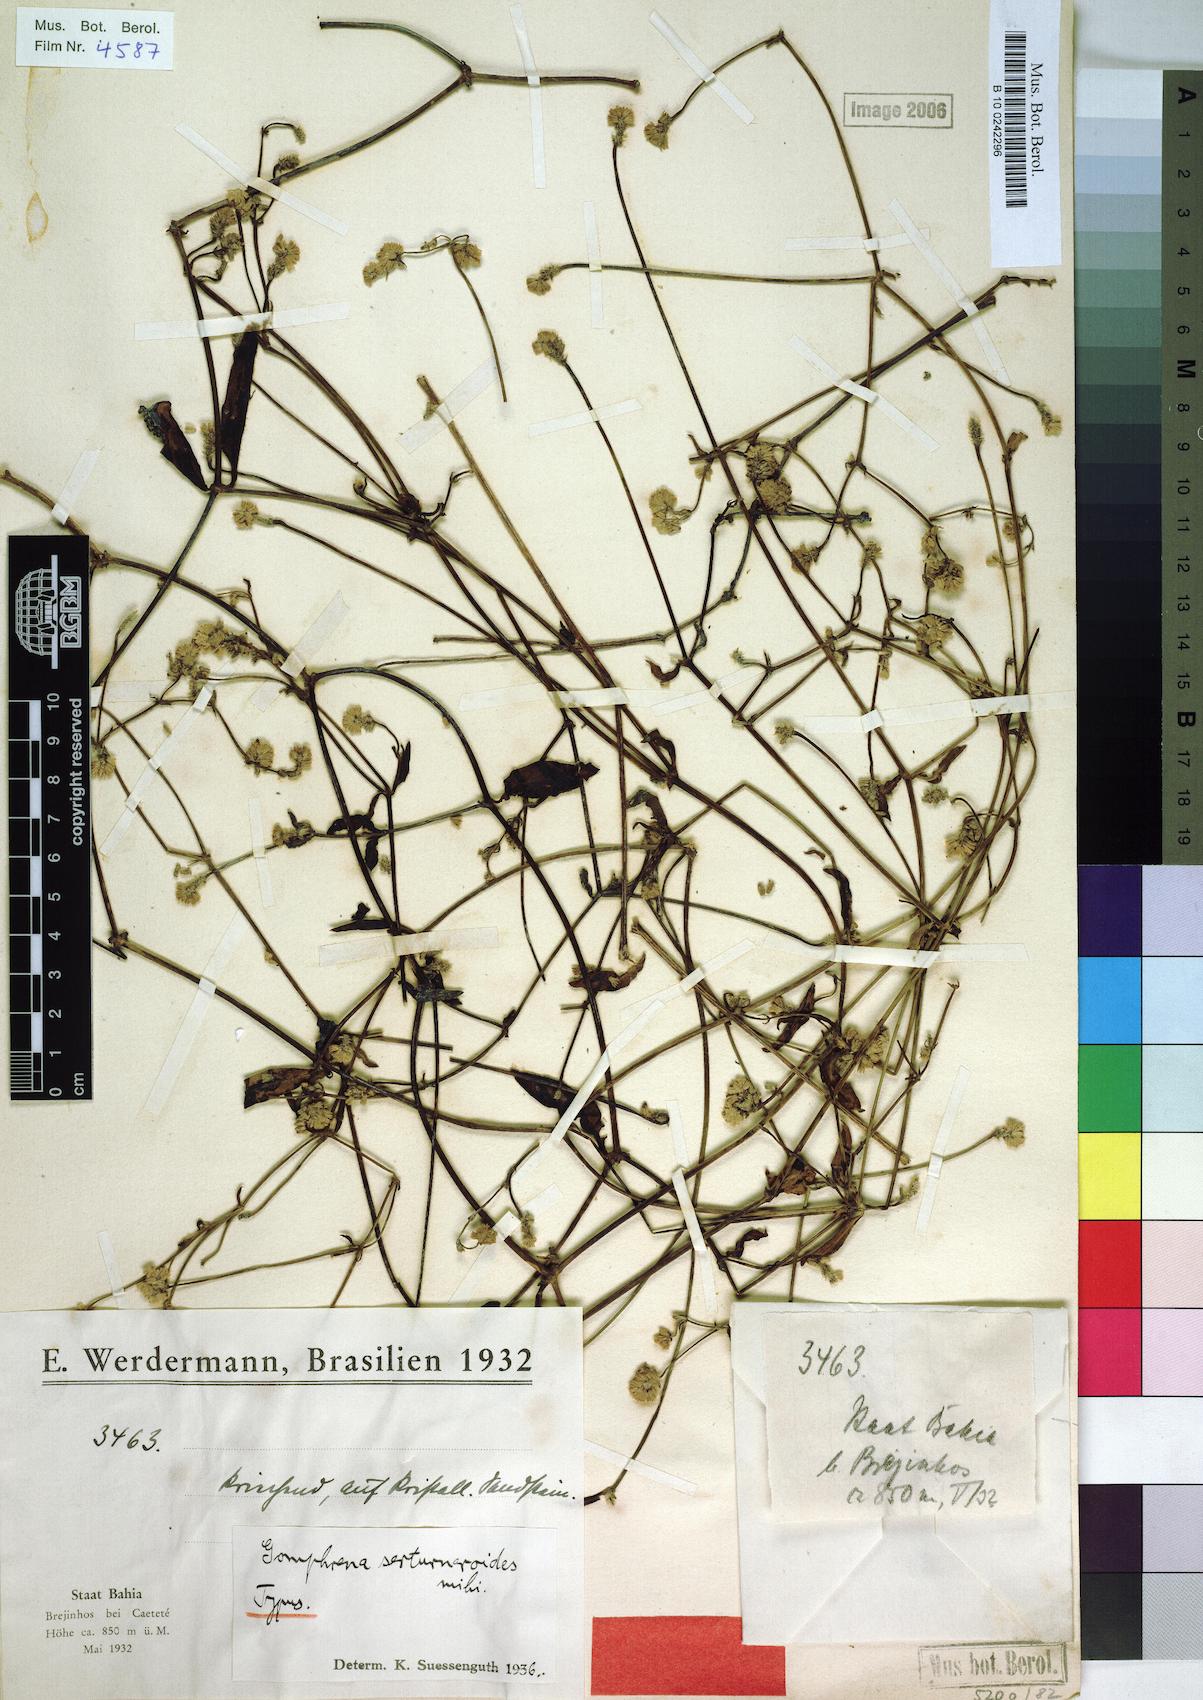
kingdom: Plantae
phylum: Tracheophyta
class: Magnoliopsida
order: Caryophyllales
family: Amaranthaceae
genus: Gomphrena
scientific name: Gomphrena serturneroides
